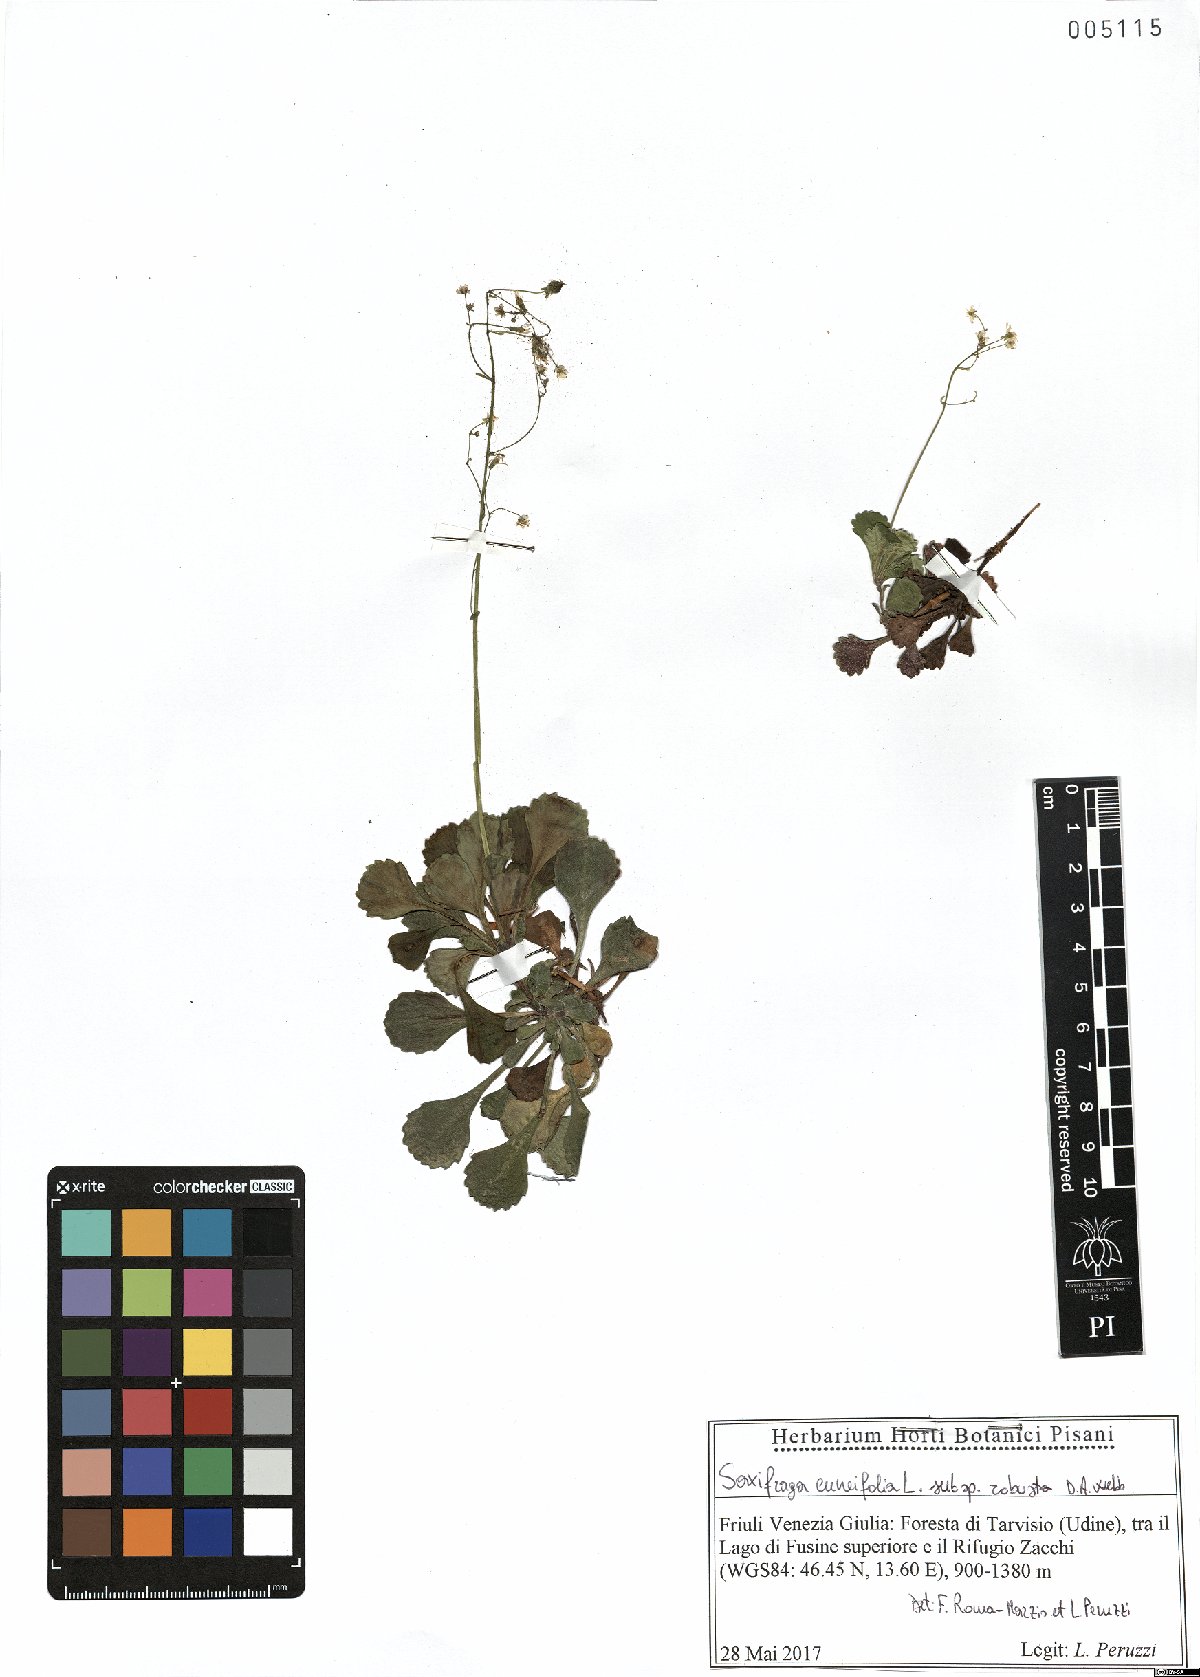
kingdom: Plantae
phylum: Tracheophyta
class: Magnoliopsida
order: Saxifragales
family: Saxifragaceae
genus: Saxifraga
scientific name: Saxifraga cuneifolia
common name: Lesser londonpride
